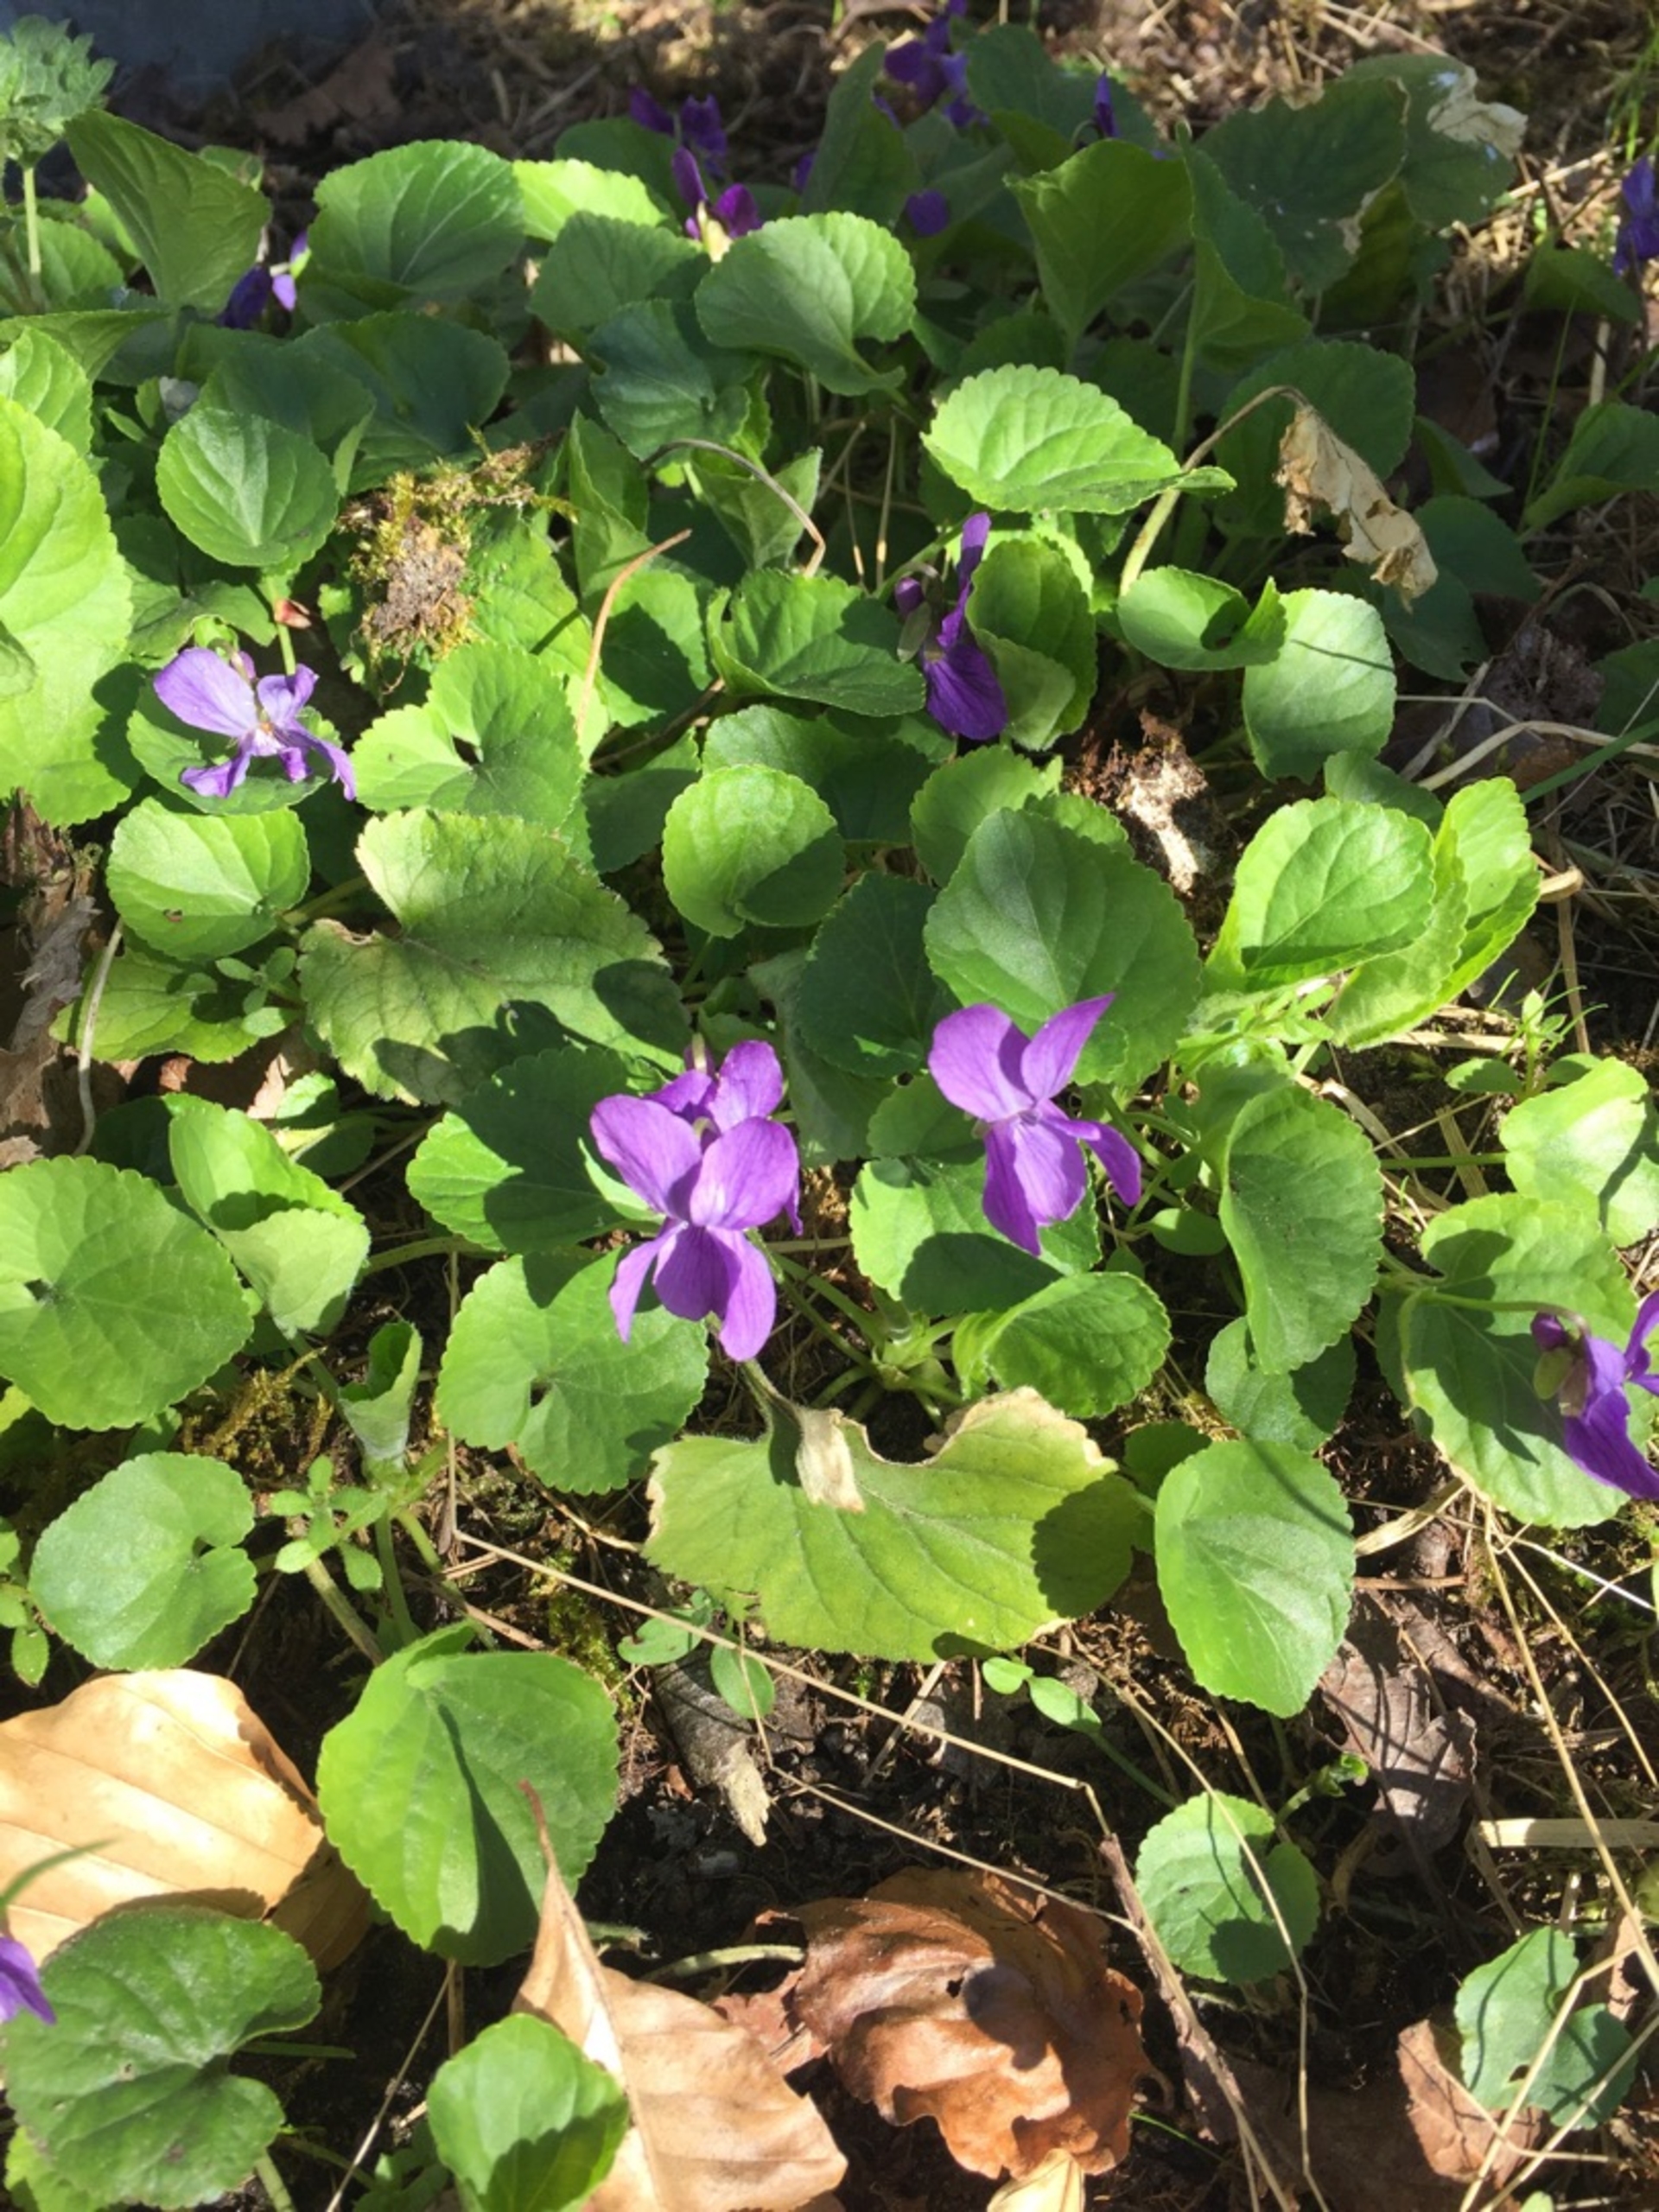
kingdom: Plantae
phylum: Tracheophyta
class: Magnoliopsida
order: Malpighiales
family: Violaceae
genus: Viola
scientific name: Viola odorata
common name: Marts-viol
